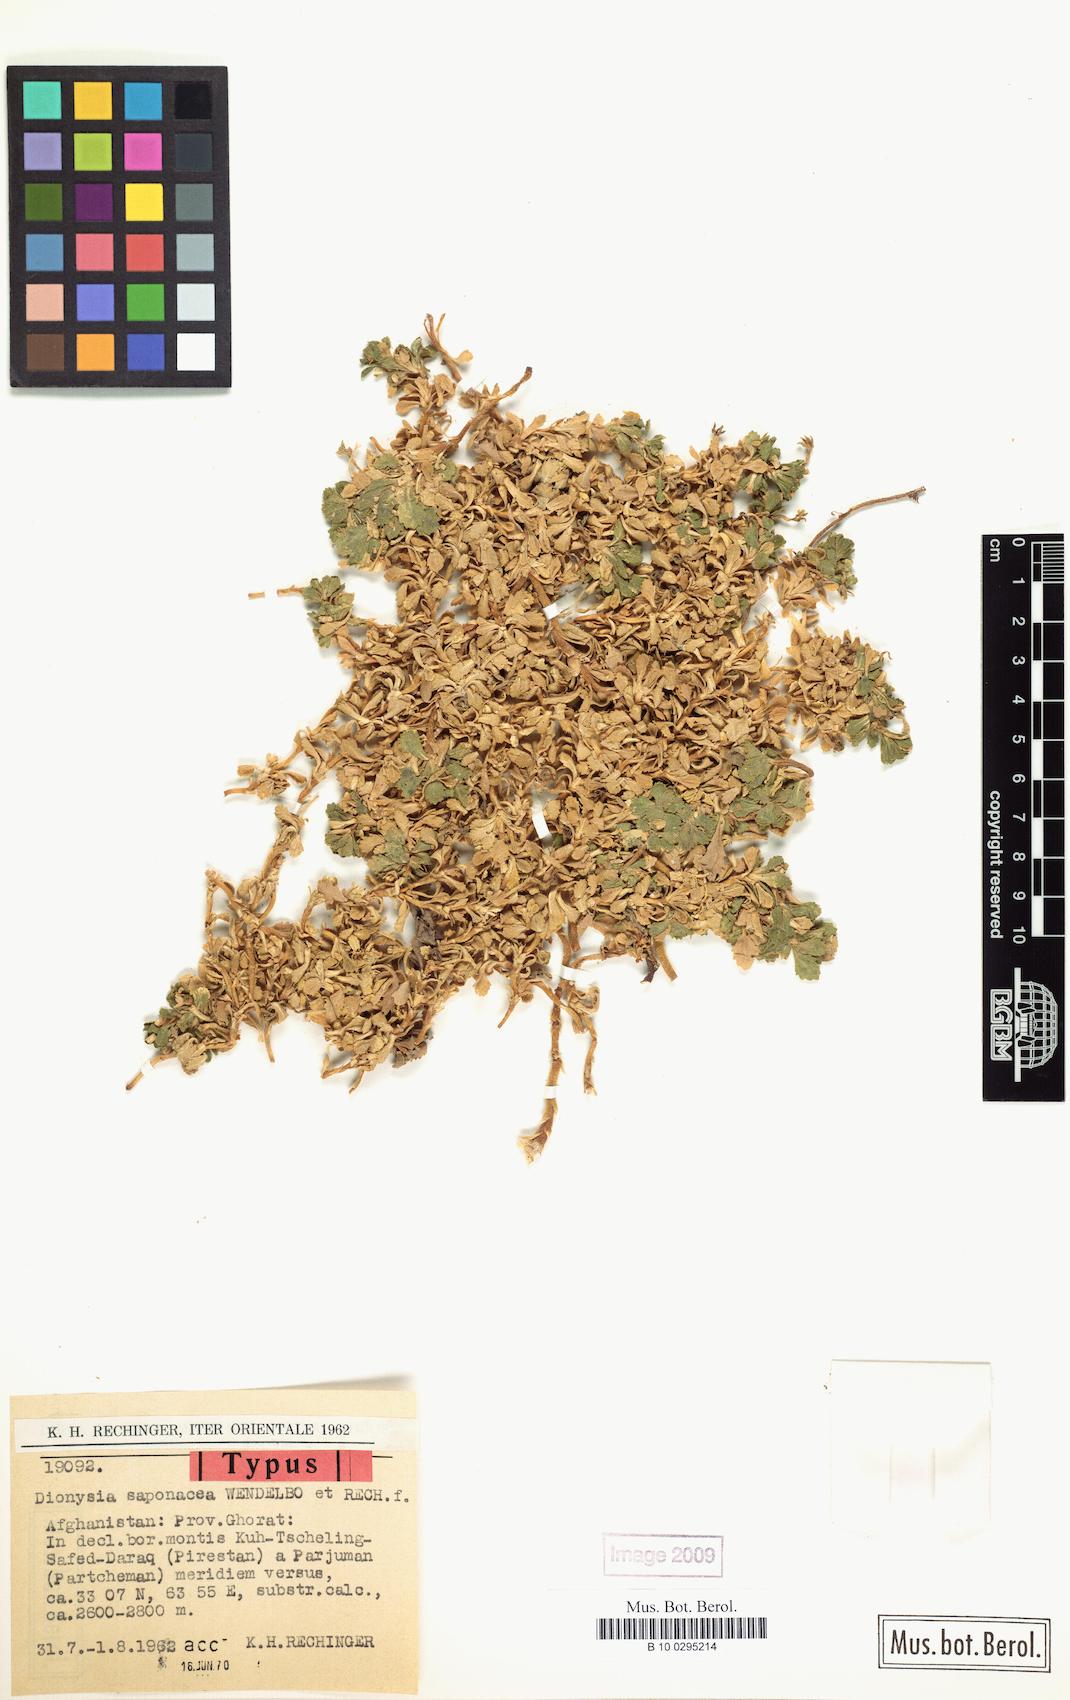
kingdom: Plantae
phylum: Tracheophyta
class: Magnoliopsida
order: Ericales
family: Primulaceae
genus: Dionysia
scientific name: Dionysia saponacea
